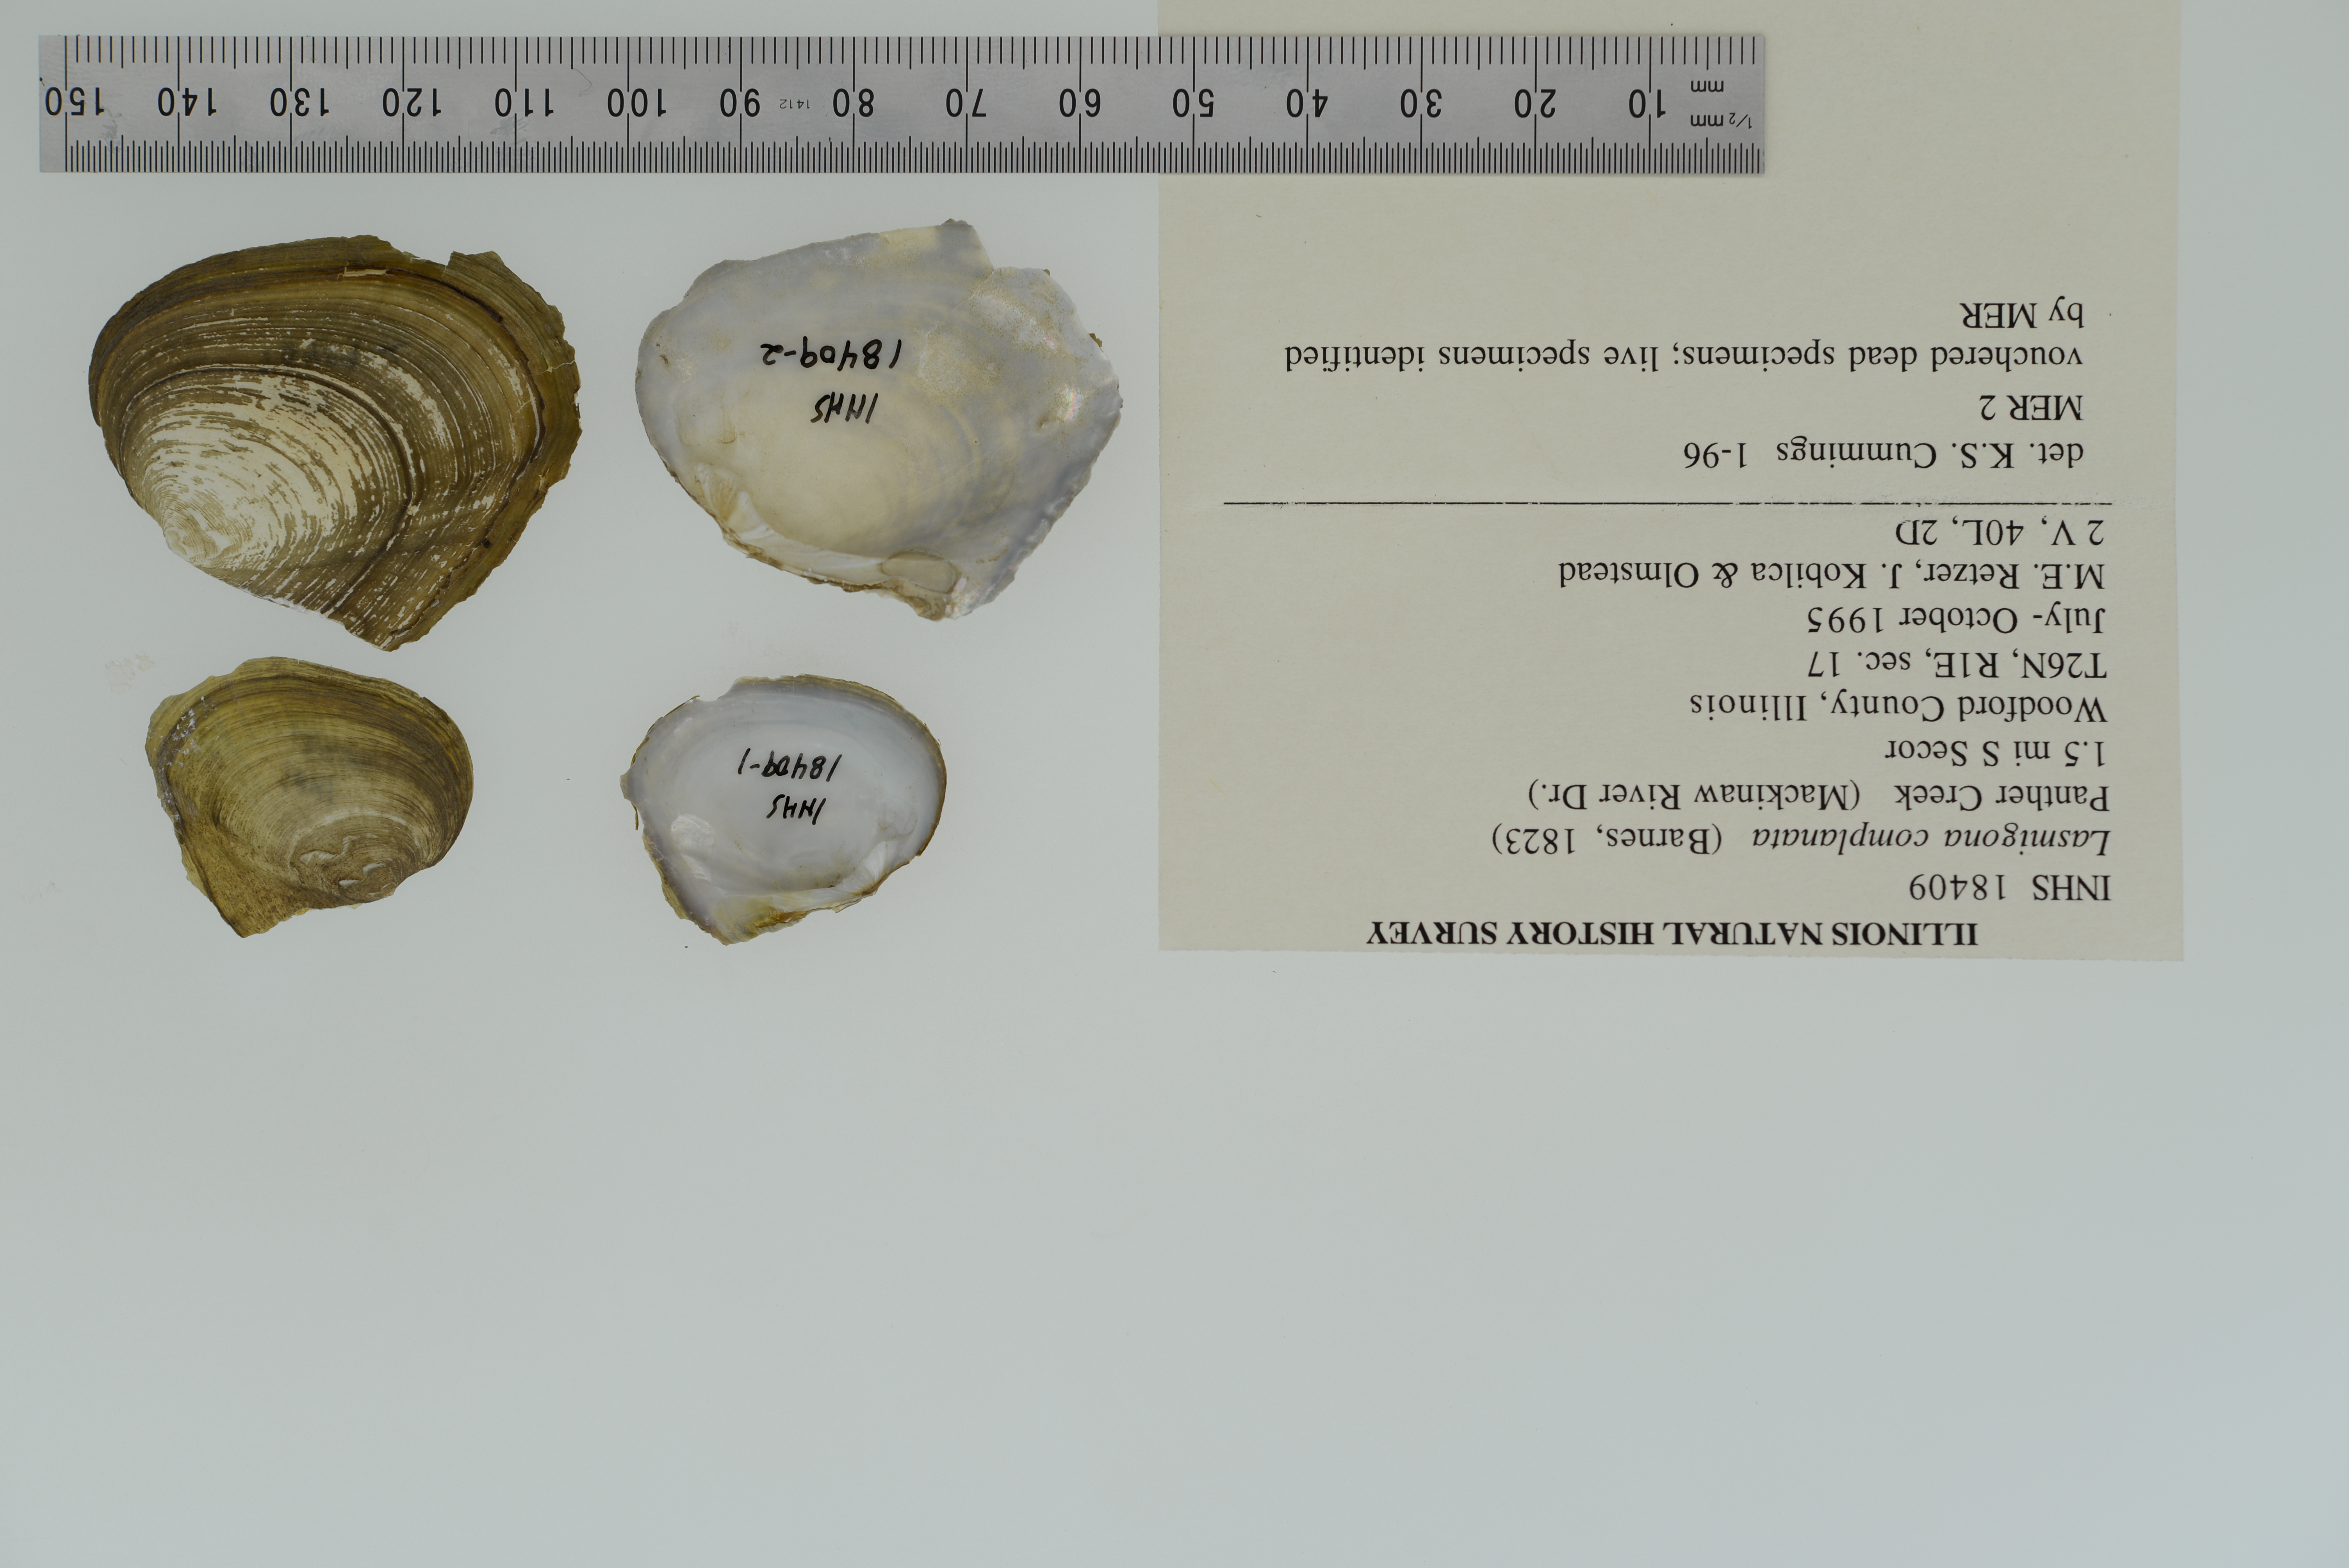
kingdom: Animalia
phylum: Mollusca
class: Bivalvia
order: Unionida
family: Unionidae
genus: Lasmigona
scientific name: Lasmigona complanata
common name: White heelsplitter
